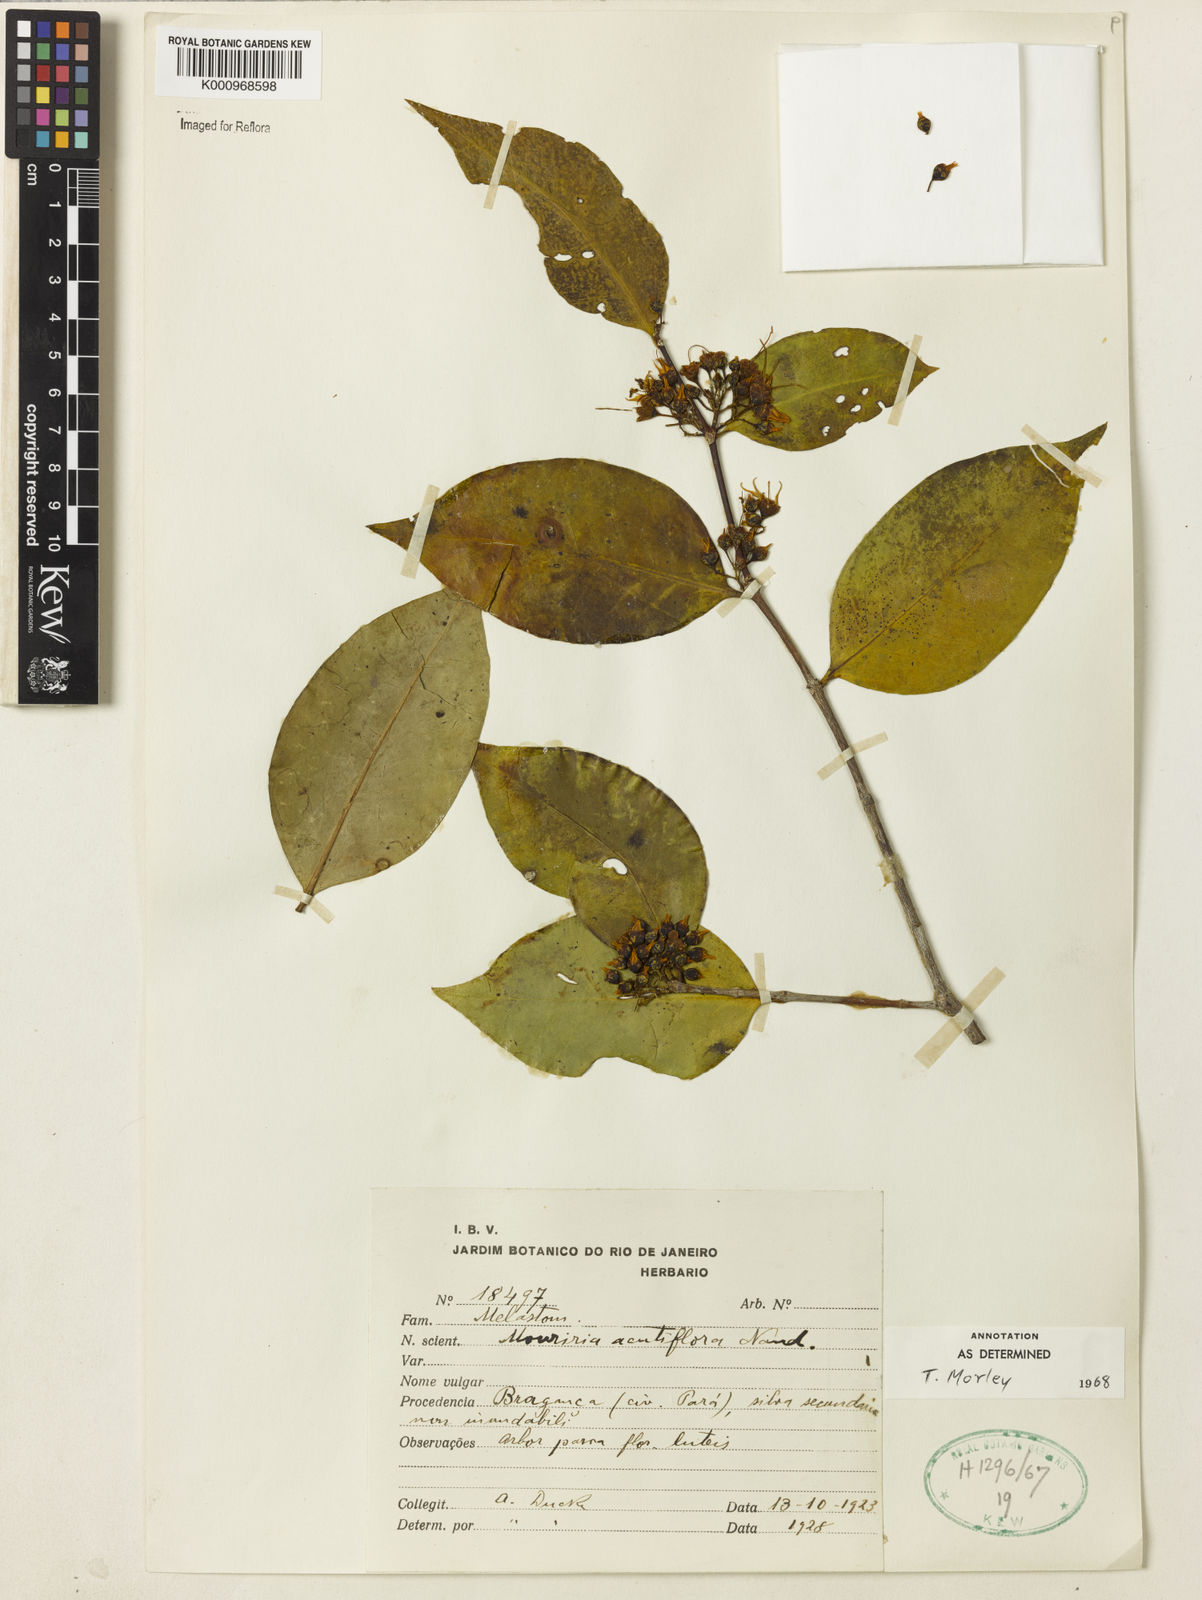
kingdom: Plantae
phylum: Tracheophyta
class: Magnoliopsida
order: Myrtales
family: Melastomataceae
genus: Mouriri
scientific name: Mouriri acutiflora
